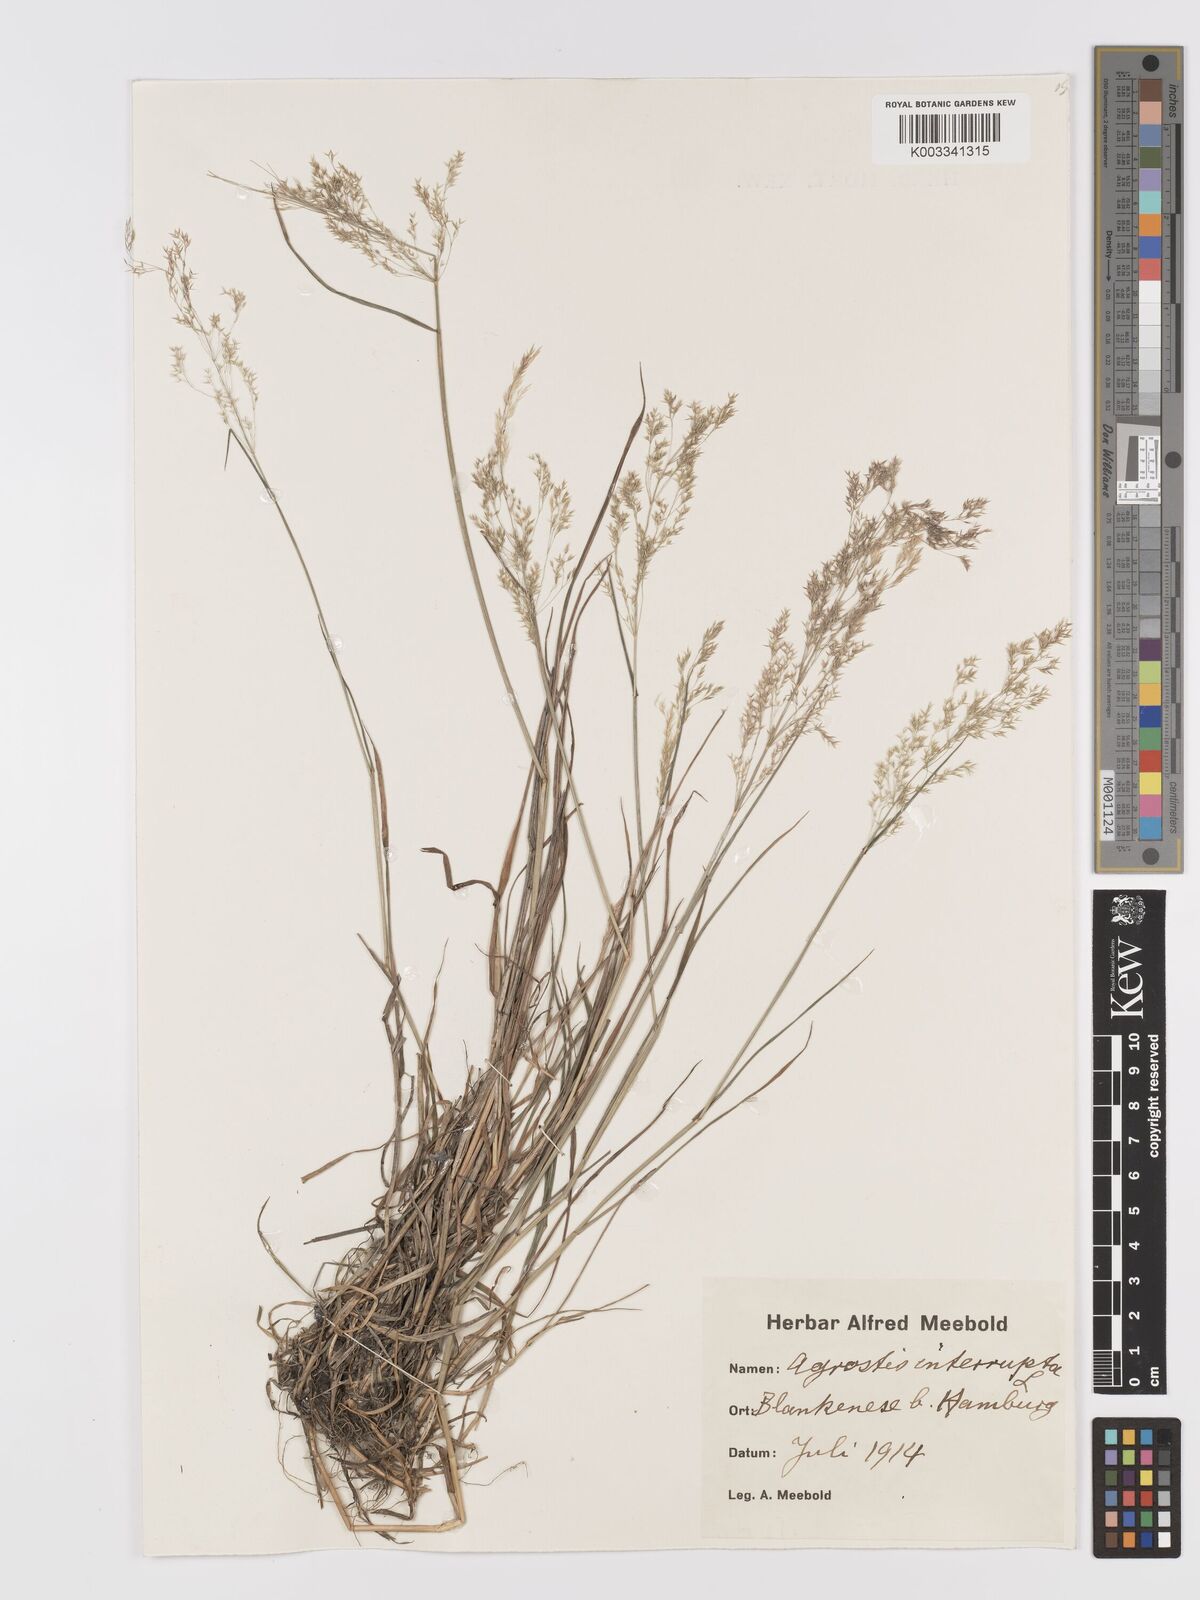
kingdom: Plantae
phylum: Tracheophyta
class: Liliopsida
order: Poales
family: Poaceae
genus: Agrostis
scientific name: Agrostis gigantea
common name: Black bent
